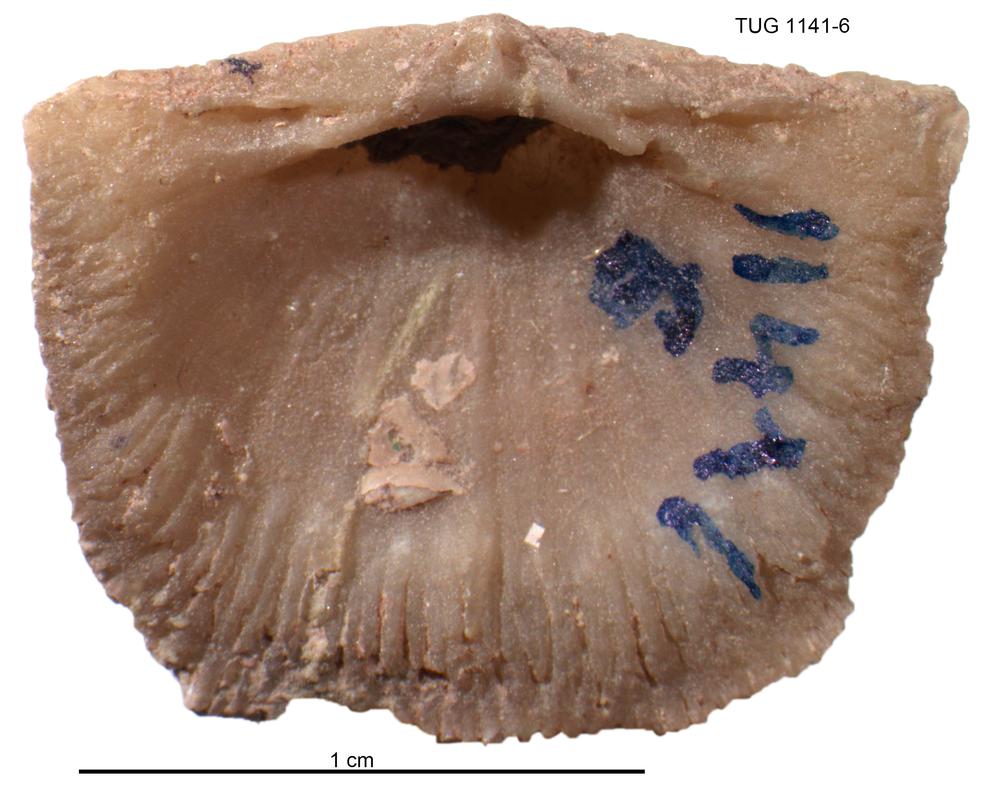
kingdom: Animalia
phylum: Brachiopoda
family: Gonambonitidae
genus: Gonambonites
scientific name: Gonambonites plana
